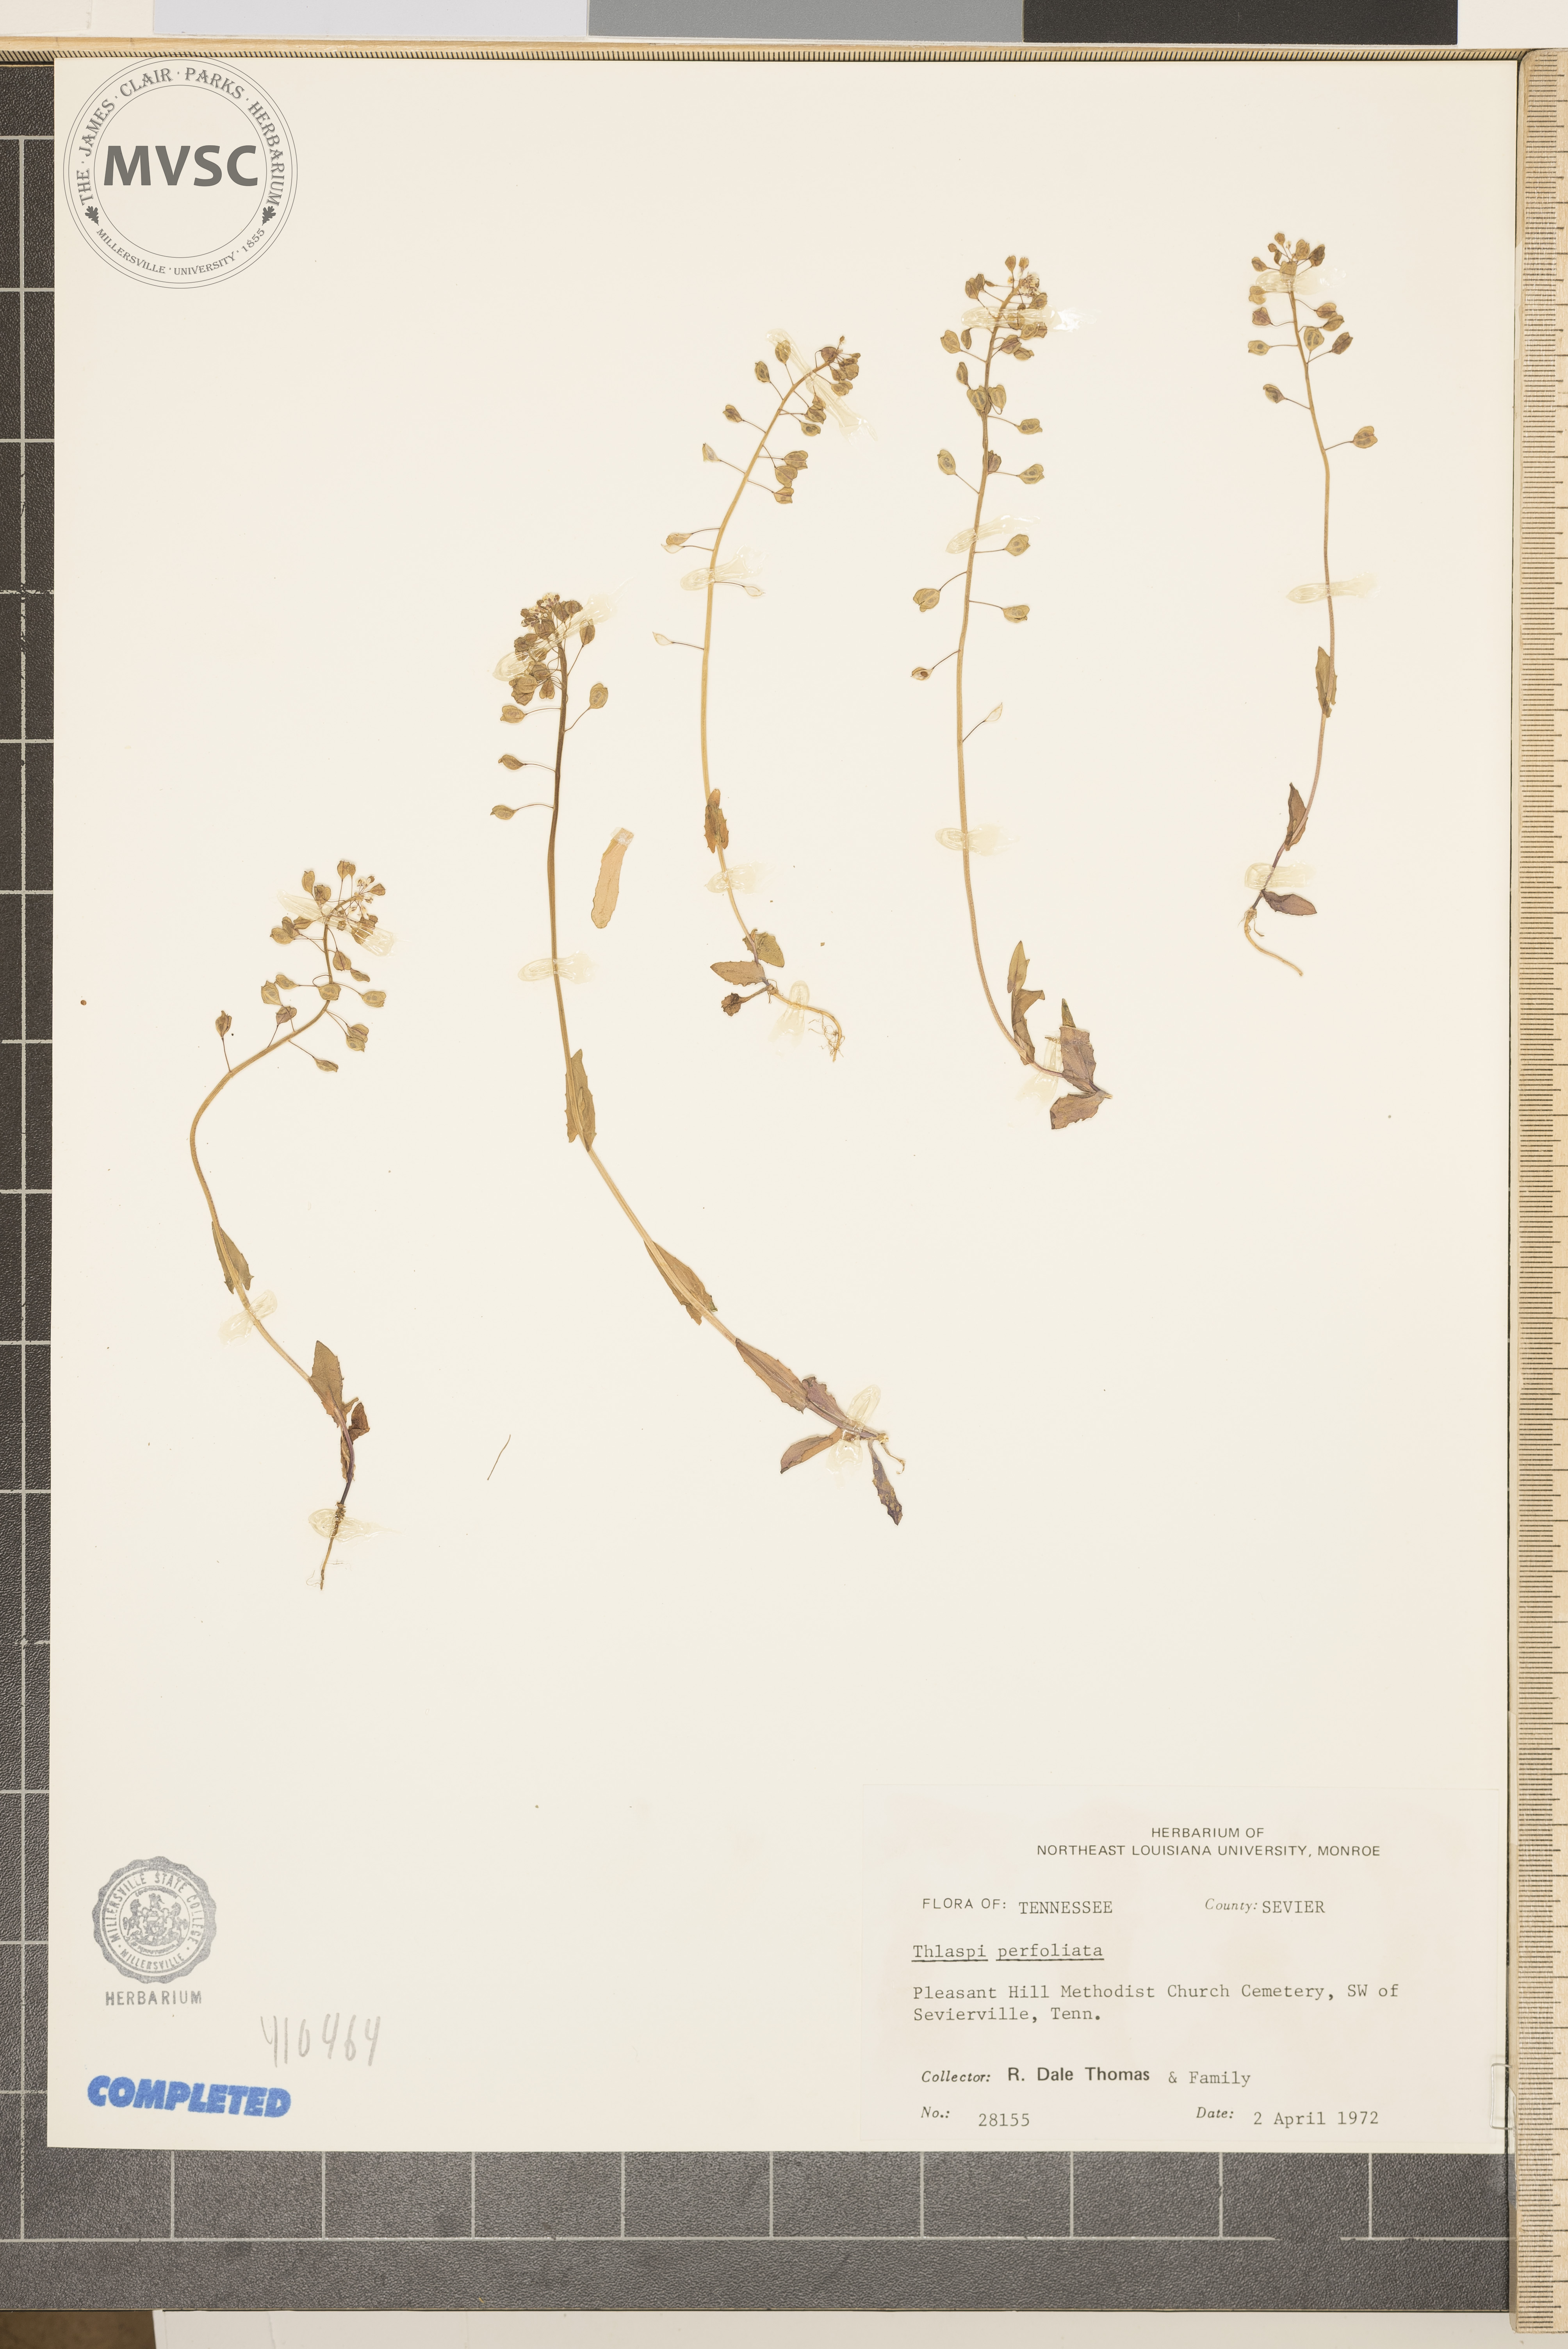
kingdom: Plantae
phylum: Tracheophyta
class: Magnoliopsida
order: Brassicales
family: Brassicaceae
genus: Noccaea
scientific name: Noccaea perfoliata
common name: Pennycress
